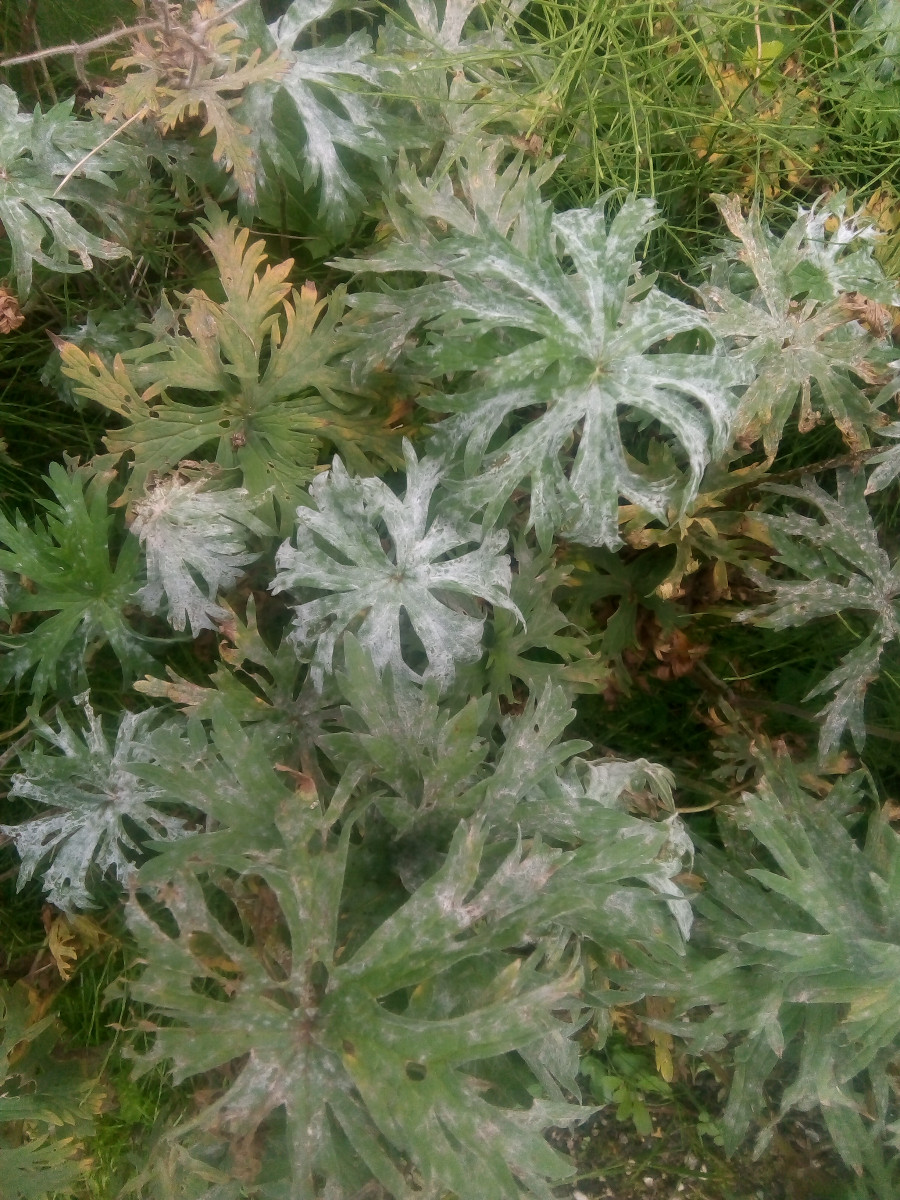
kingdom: Fungi
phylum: Ascomycota
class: Leotiomycetes
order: Helotiales
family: Erysiphaceae
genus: Podosphaera
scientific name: Podosphaera fugax
